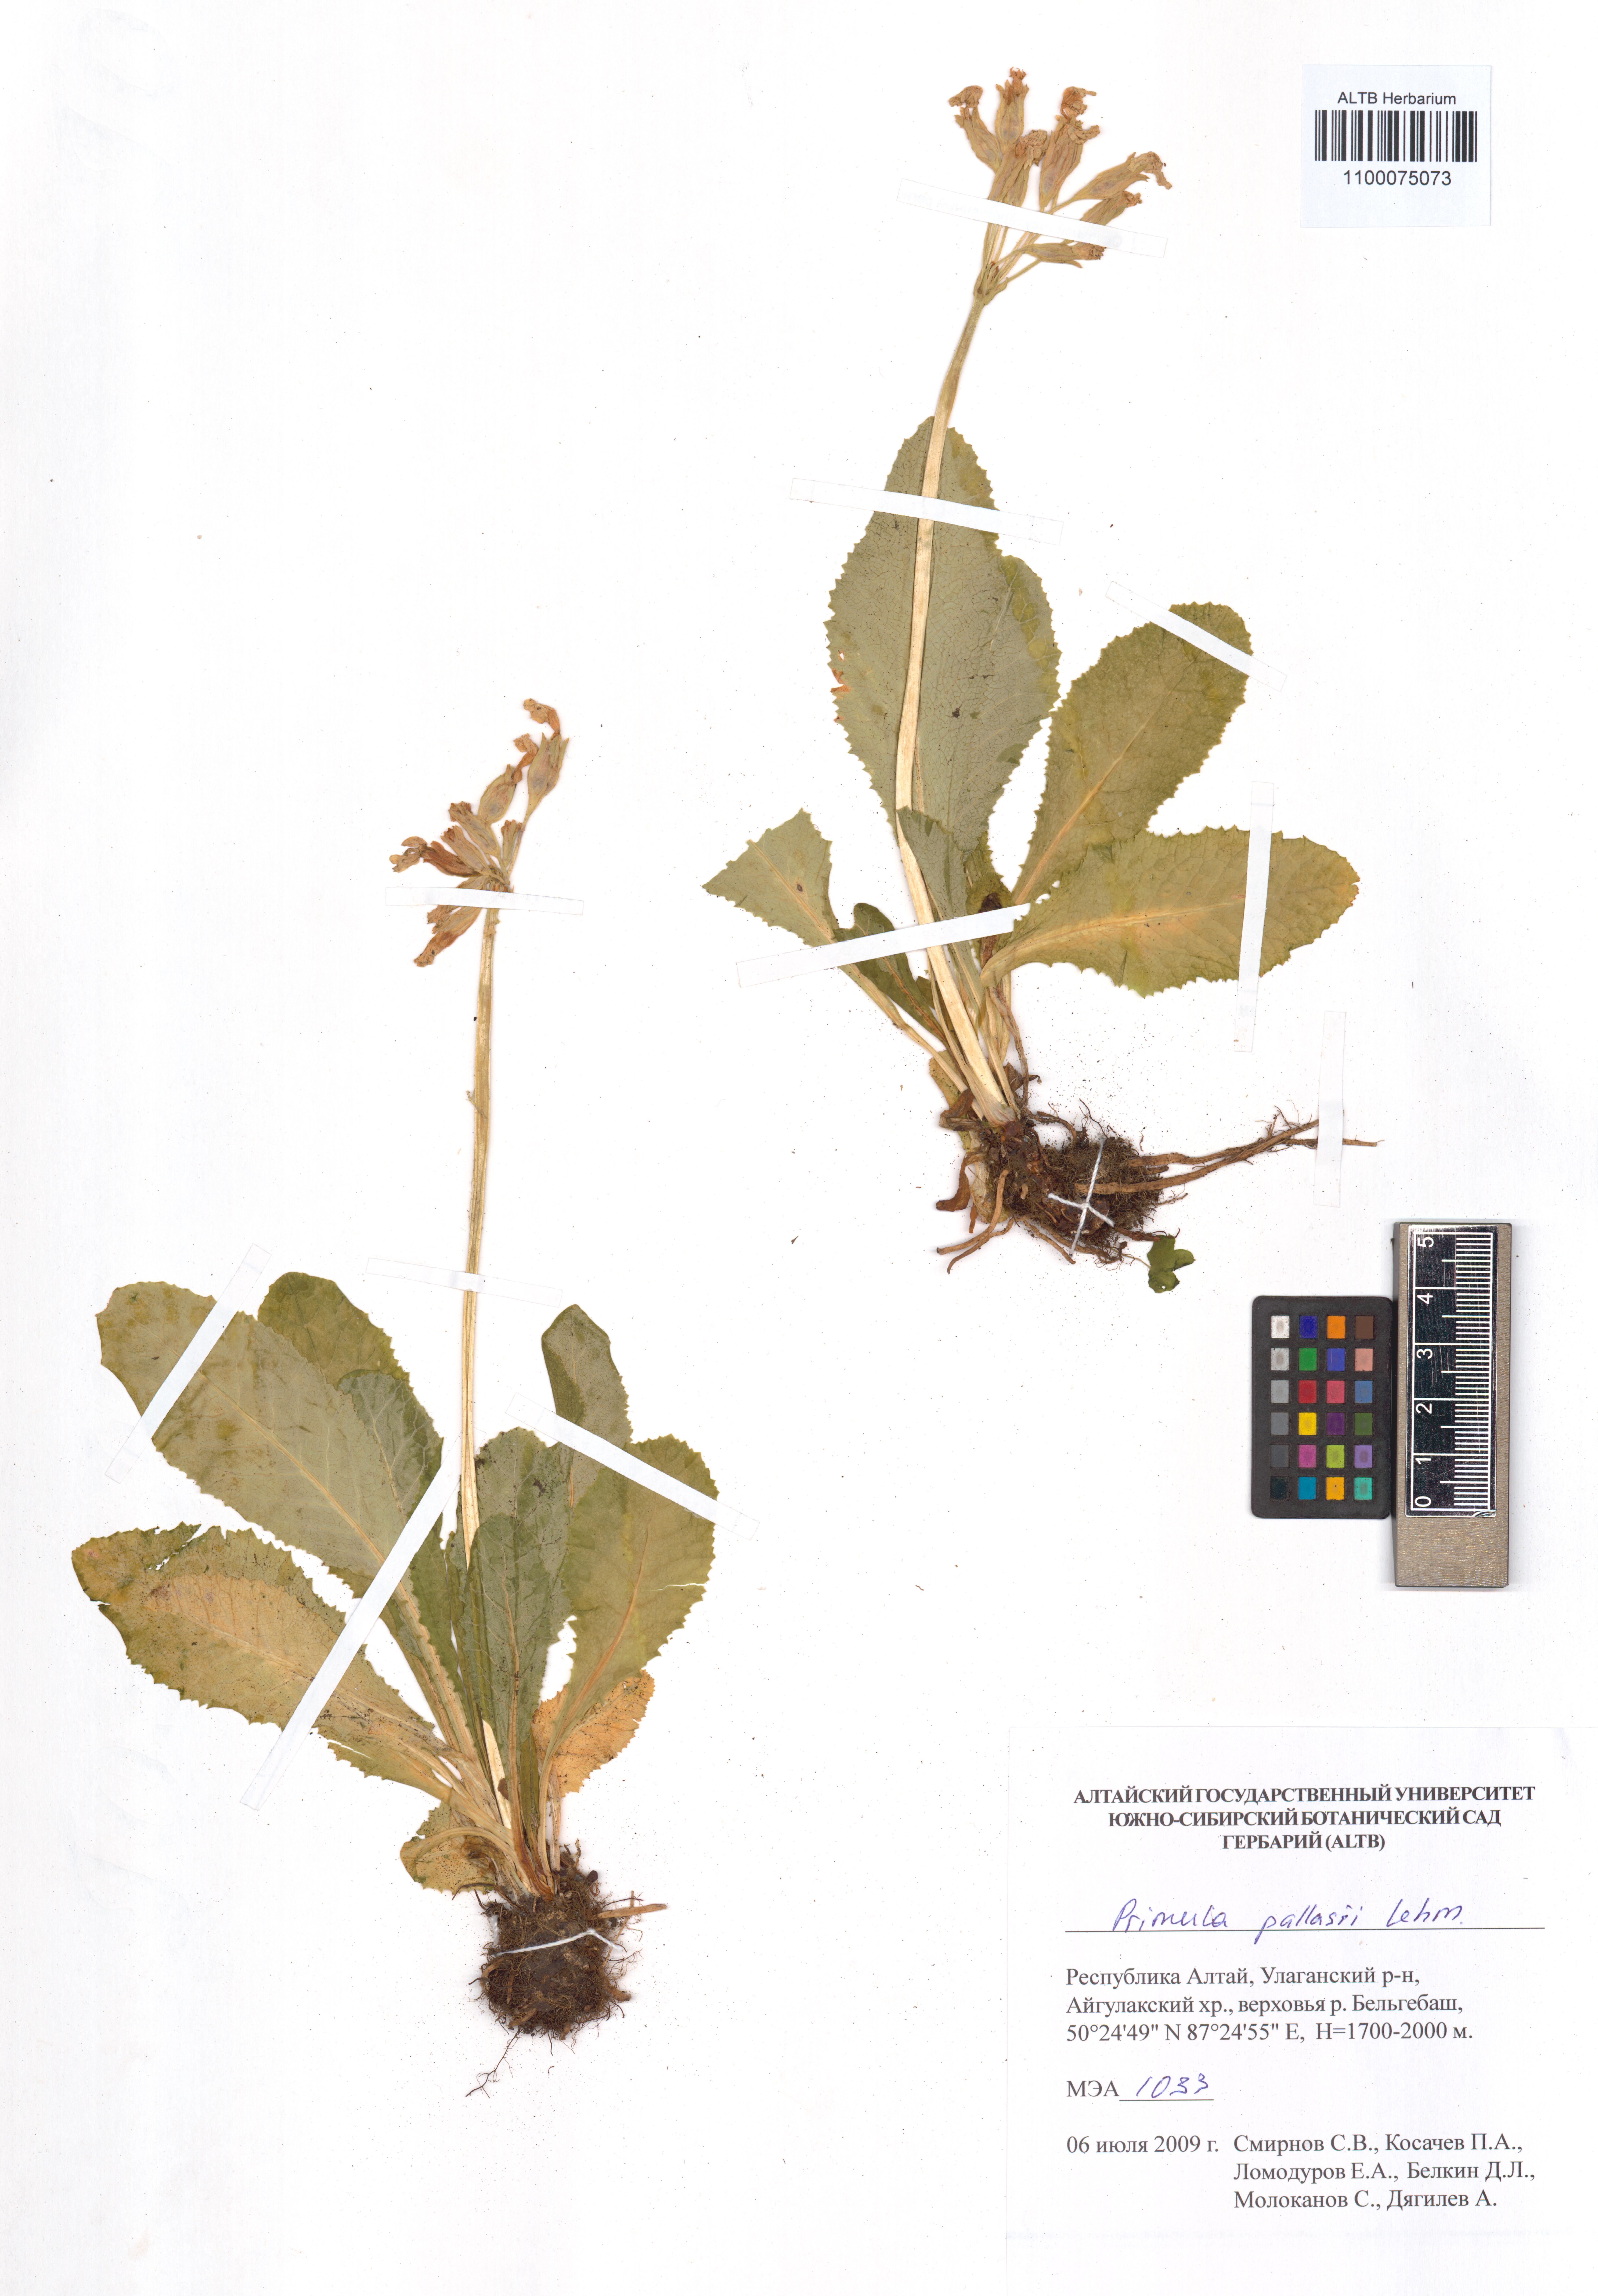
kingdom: Plantae
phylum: Tracheophyta
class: Magnoliopsida
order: Ericales
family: Primulaceae
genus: Primula
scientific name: Primula elatior
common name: Oxlip
